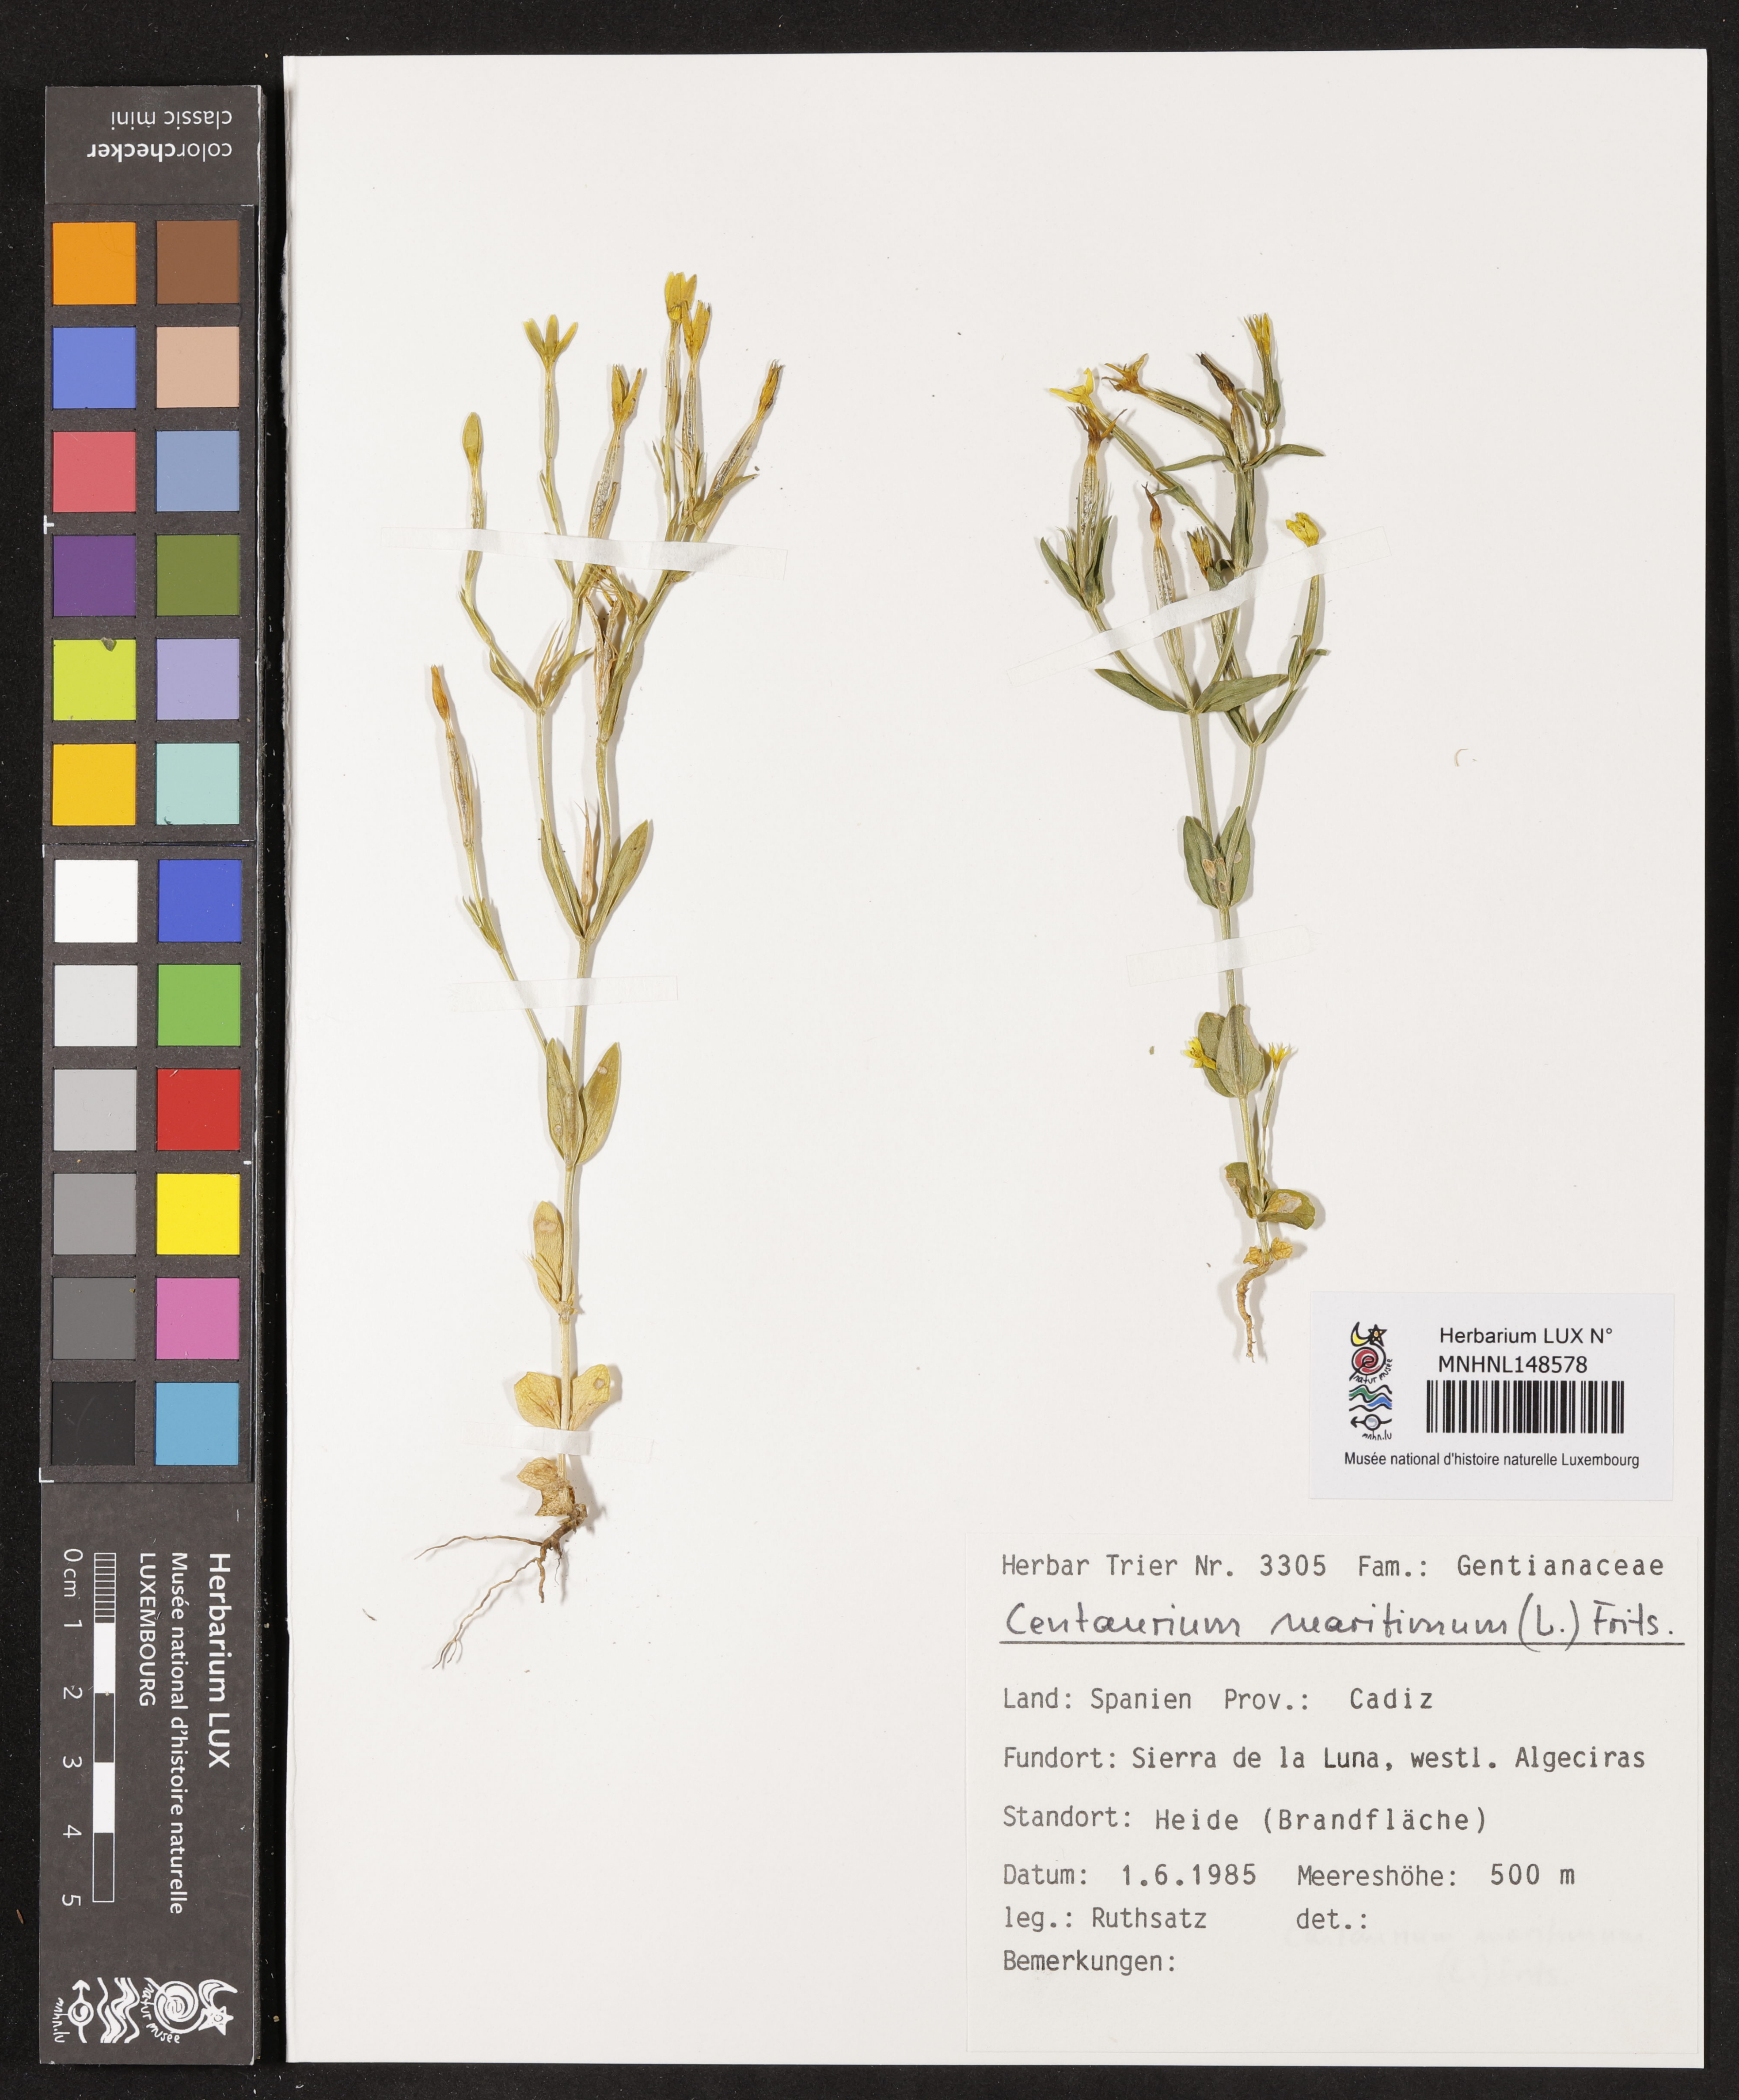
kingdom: Plantae
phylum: Tracheophyta
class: Magnoliopsida
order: Gentianales
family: Gentianaceae
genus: Centaurium
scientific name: Centaurium maritimum
